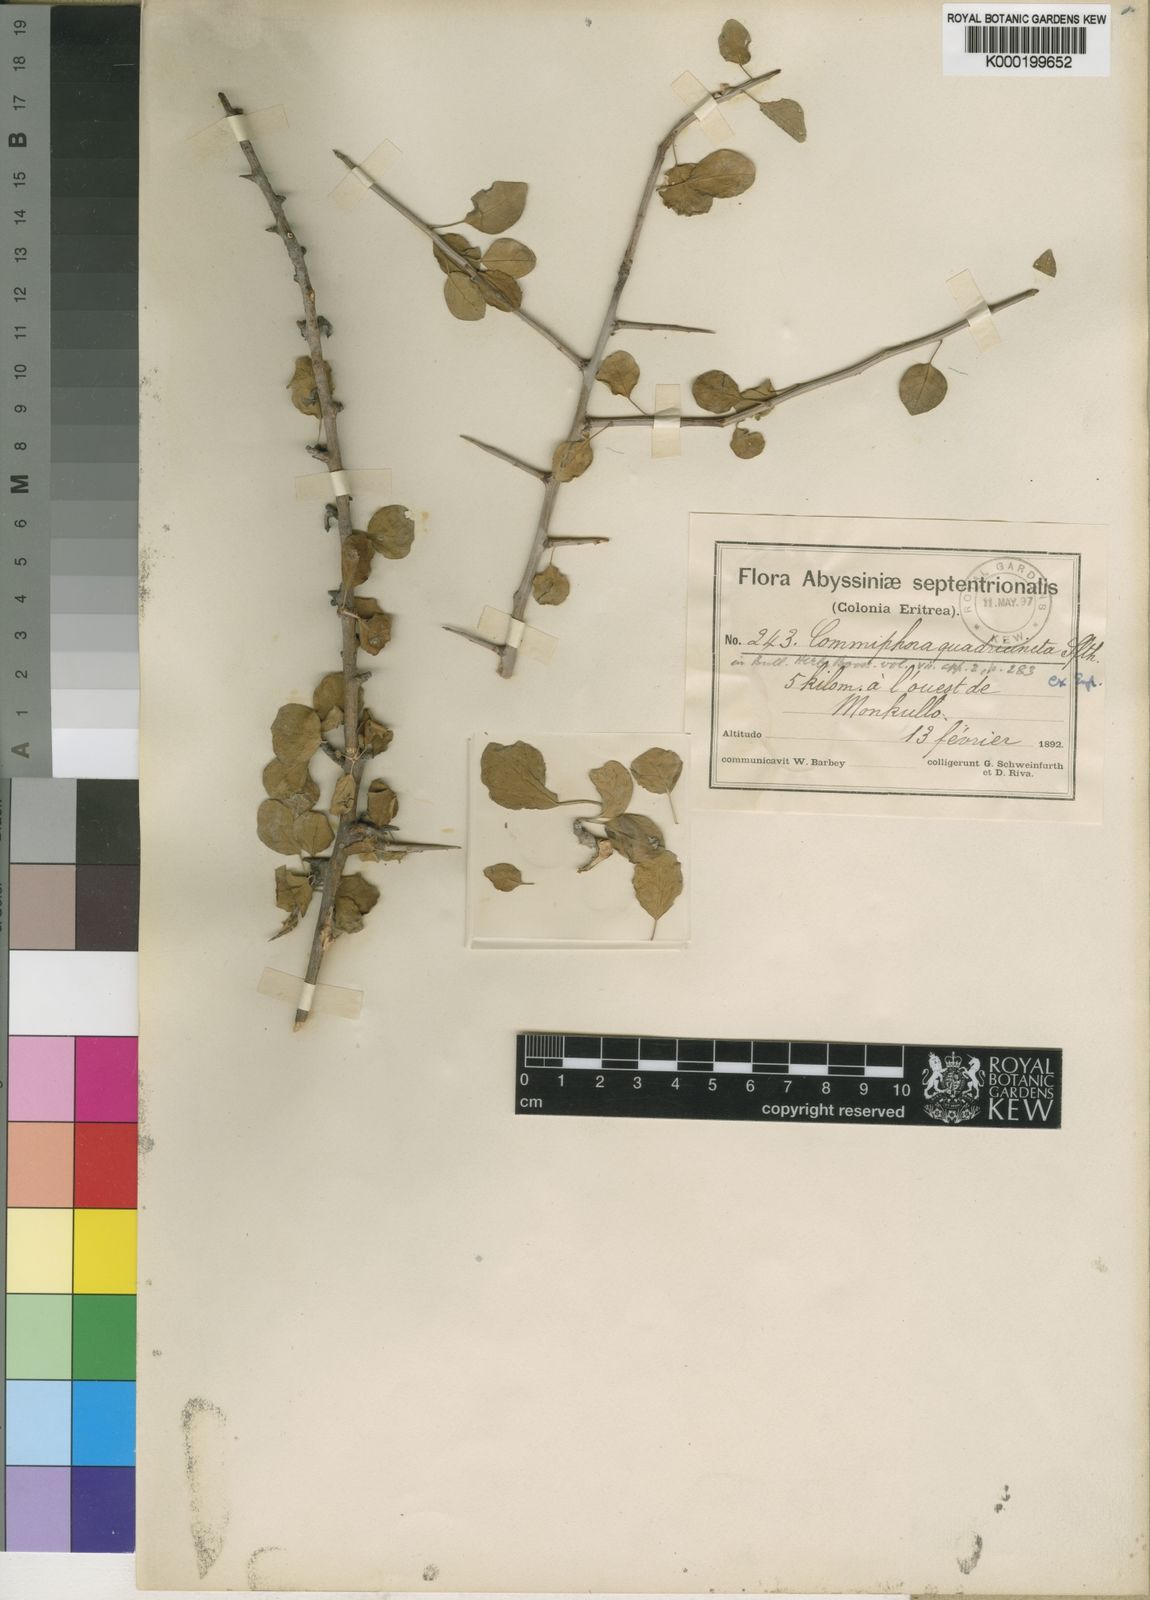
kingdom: Plantae
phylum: Tracheophyta
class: Magnoliopsida
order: Sapindales
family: Burseraceae
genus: Commiphora
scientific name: Commiphora
